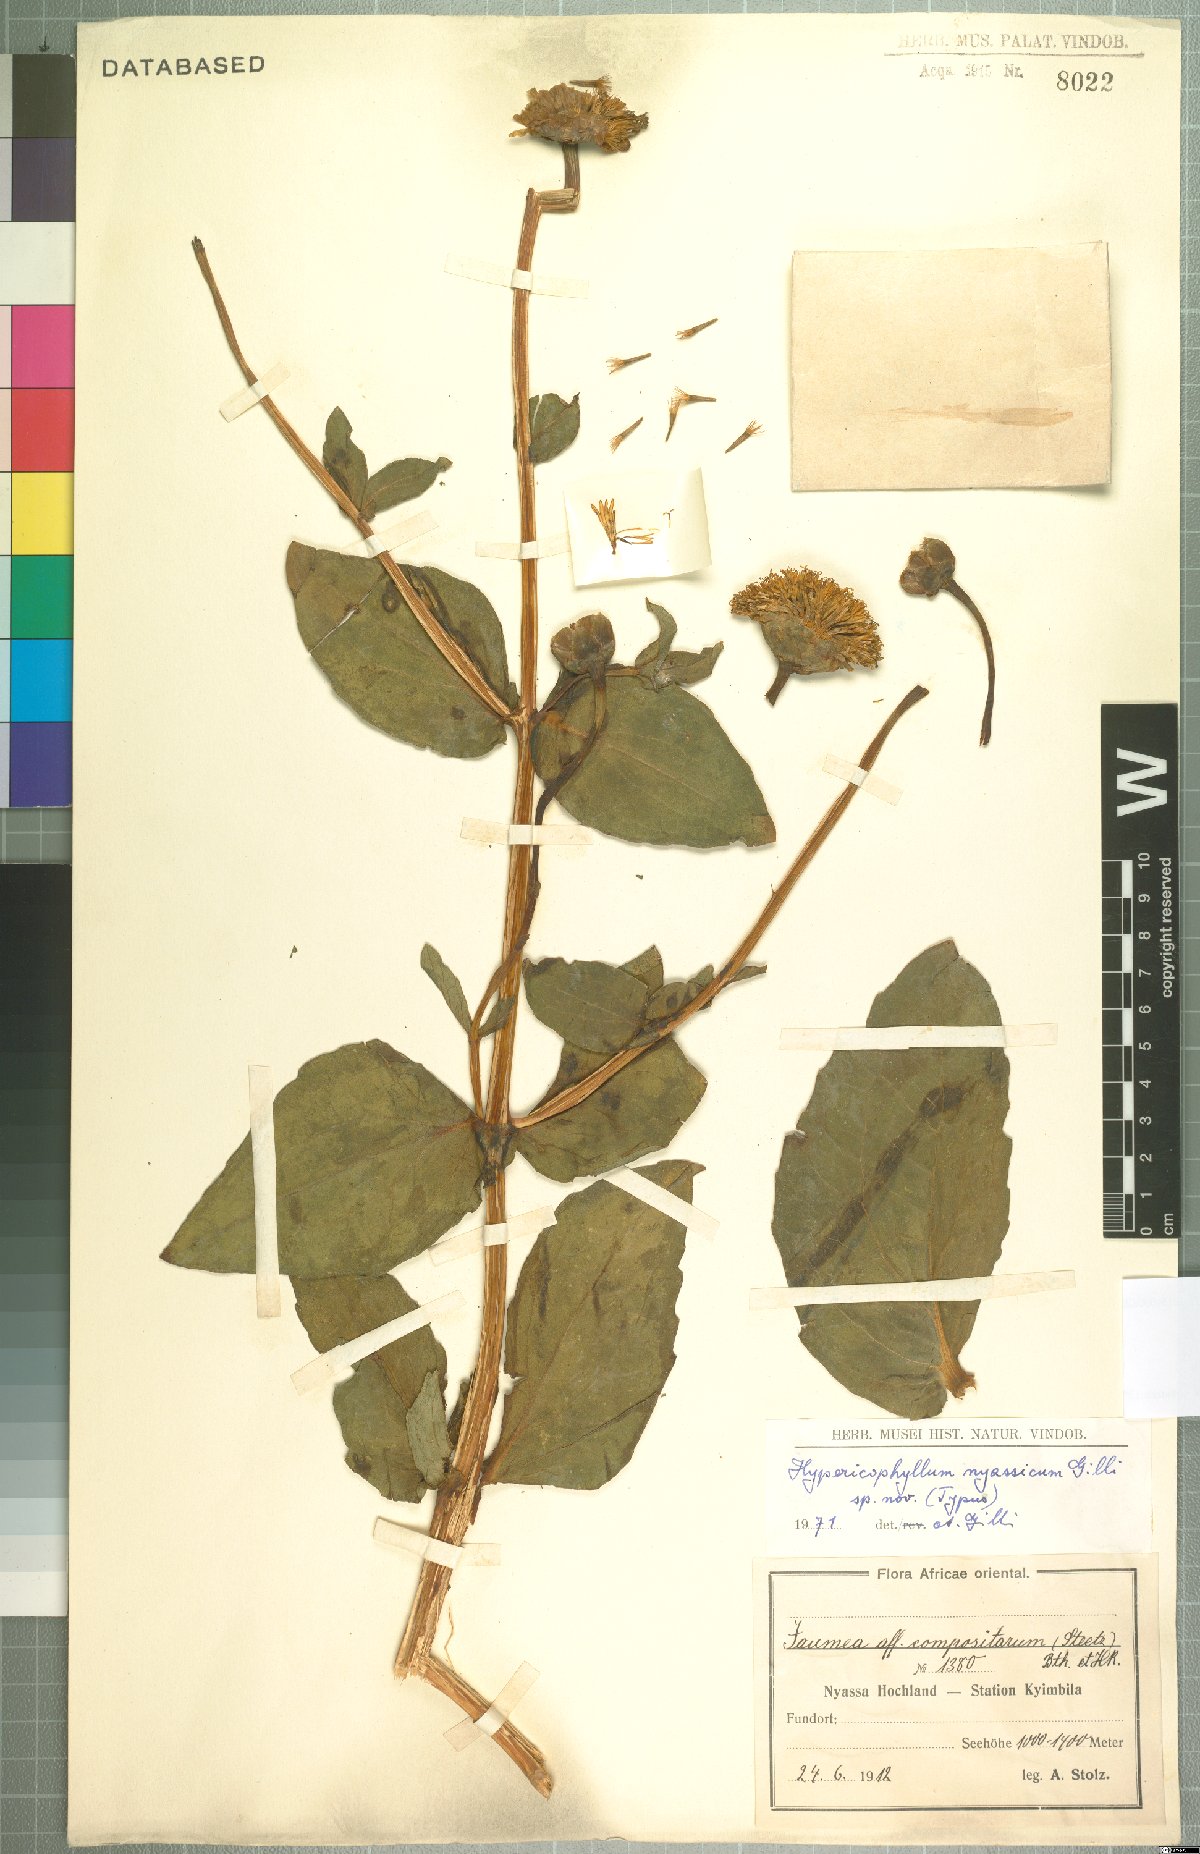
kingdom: Plantae
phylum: Tracheophyta
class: Magnoliopsida
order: Asterales
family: Asteraceae
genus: Hypericophyllum
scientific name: Hypericophyllum nyassicum
